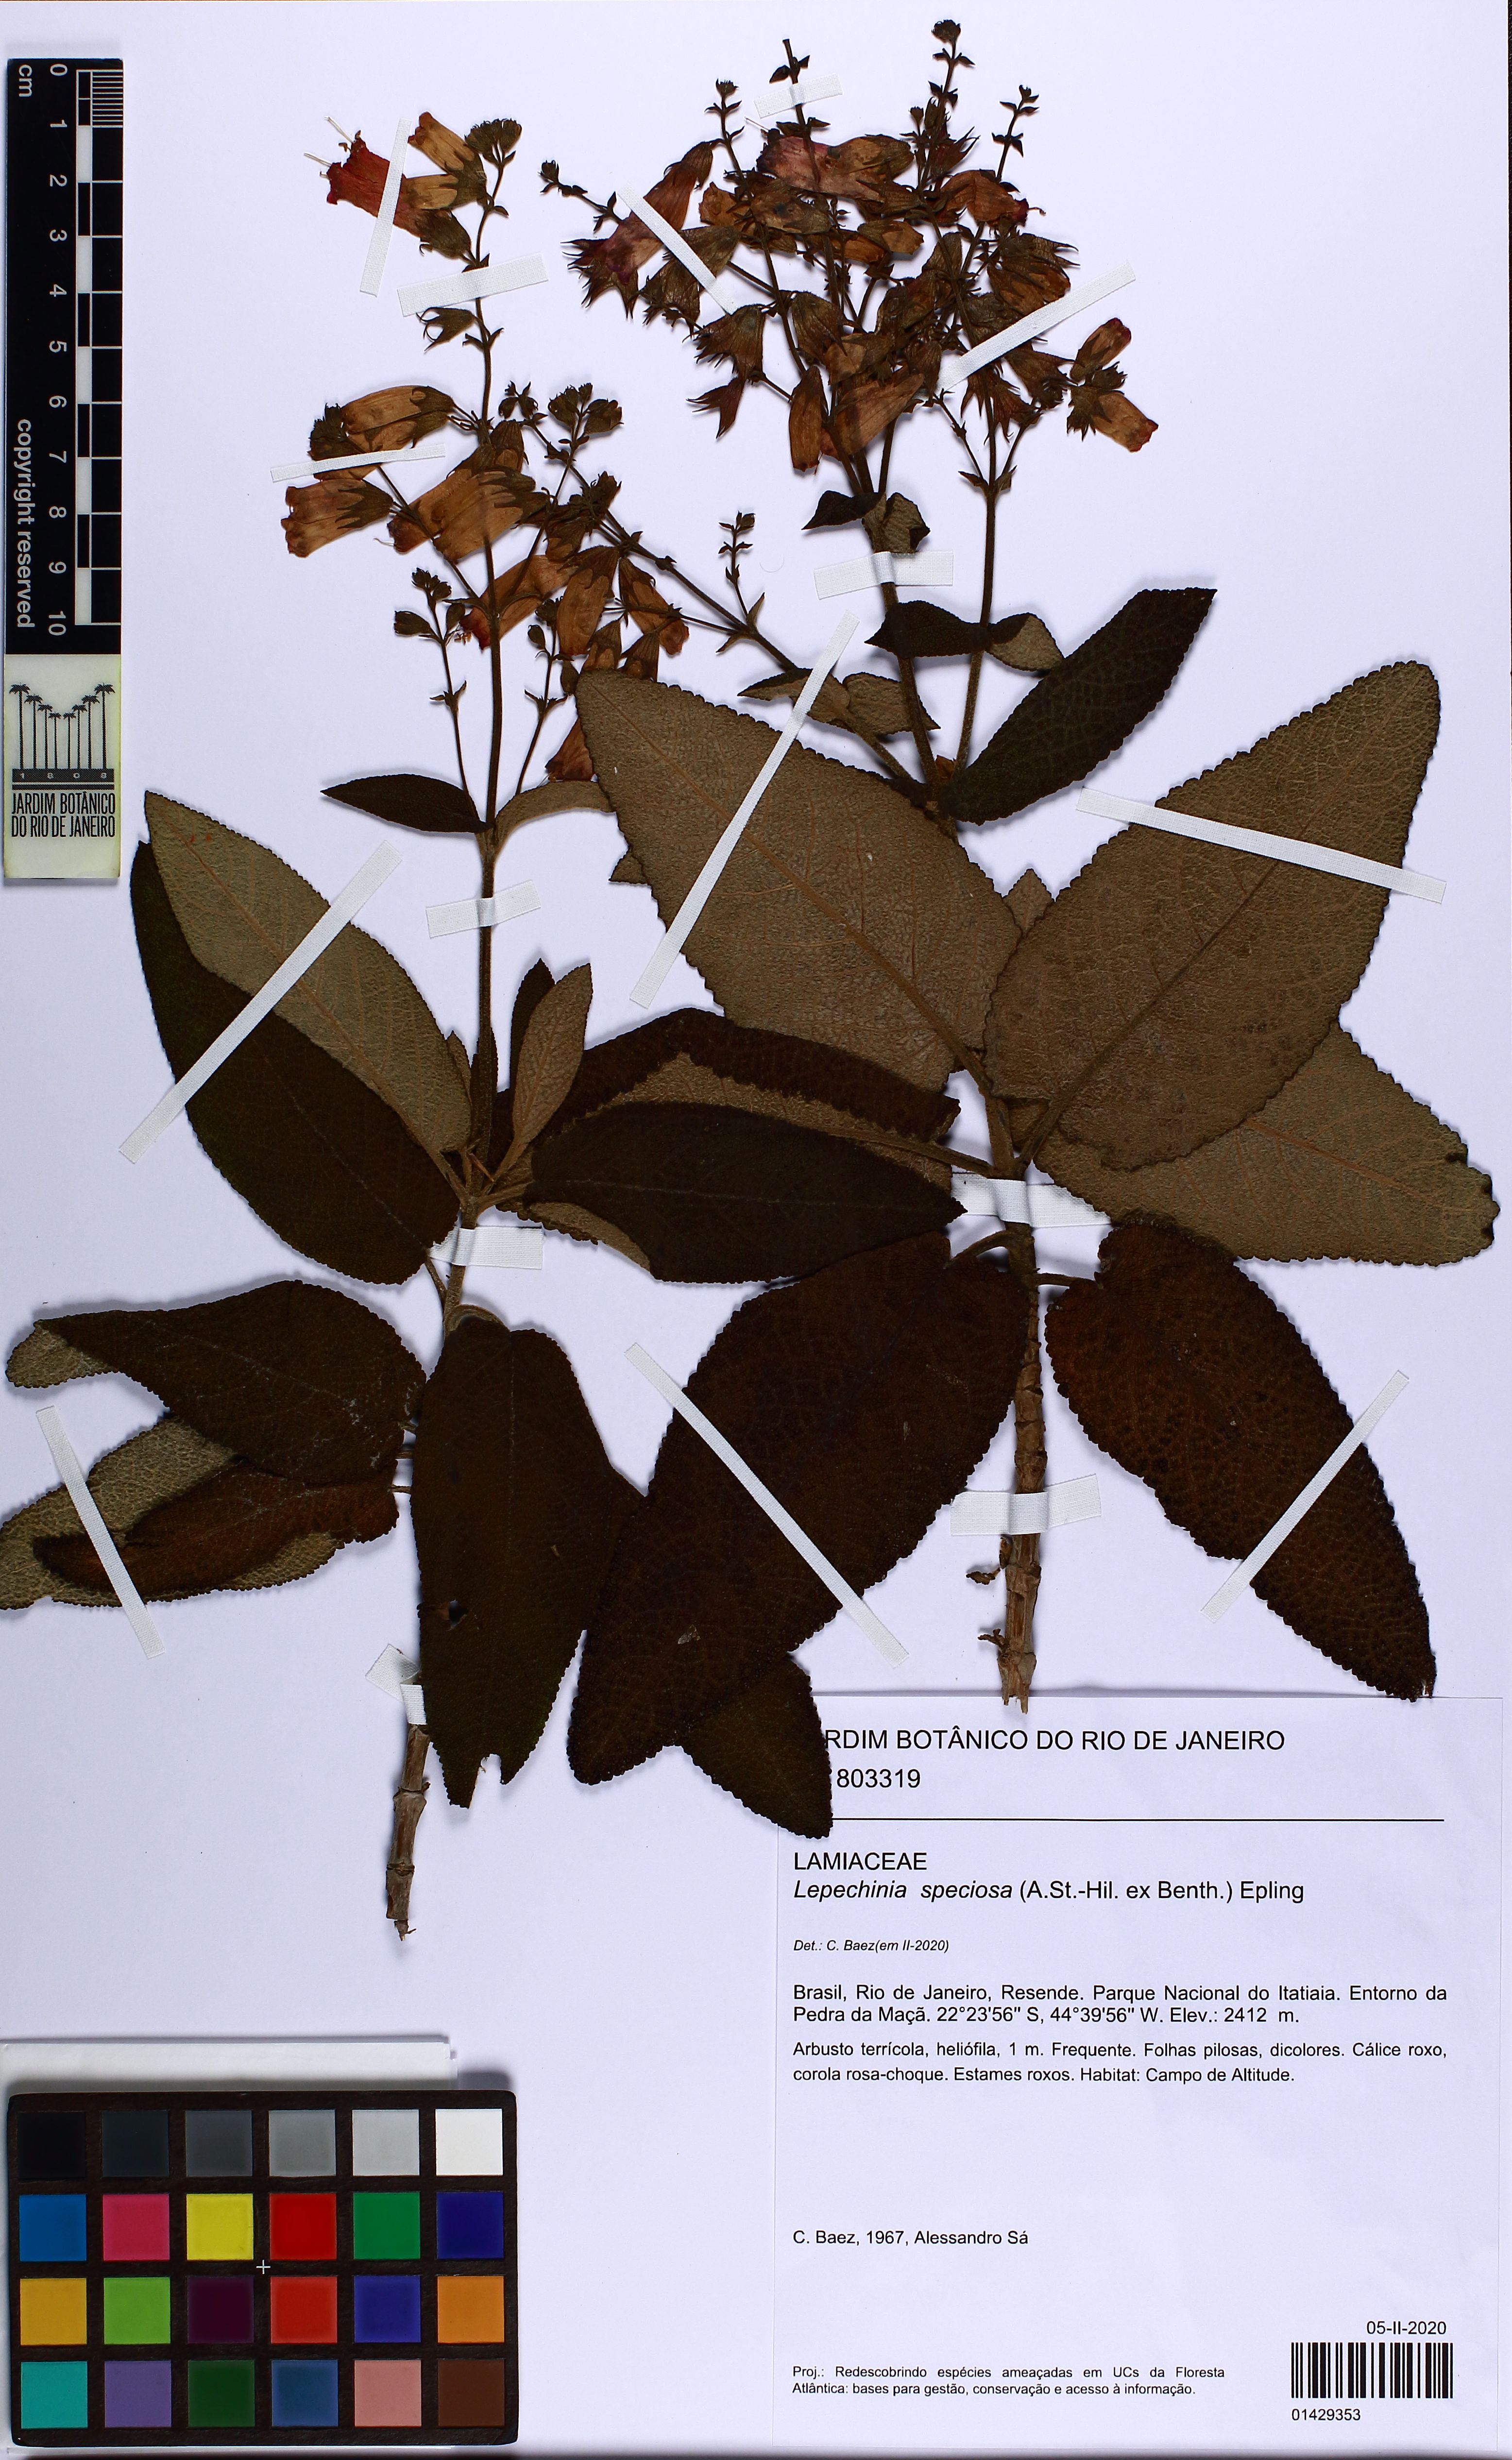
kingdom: Plantae
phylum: Tracheophyta
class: Magnoliopsida
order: Lamiales
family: Lamiaceae
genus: Lepechinia
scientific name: Lepechinia speciosa
